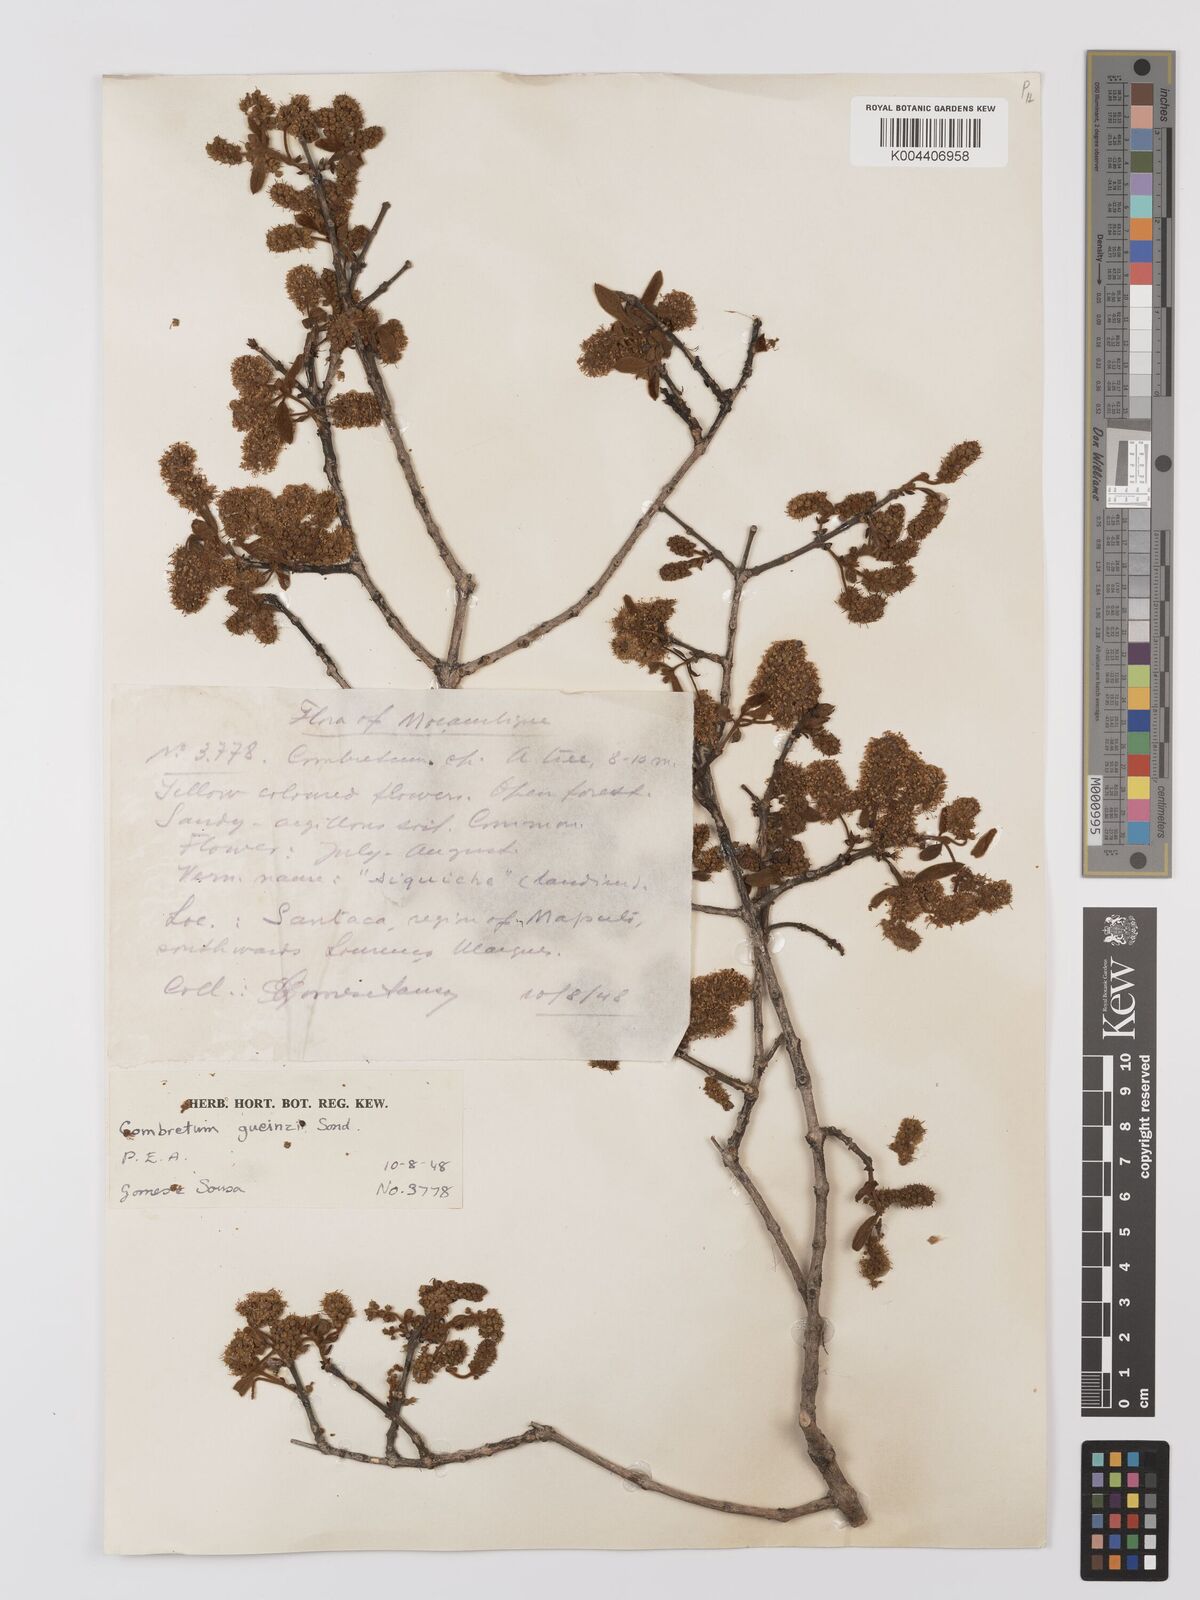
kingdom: Plantae
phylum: Tracheophyta
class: Magnoliopsida
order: Myrtales
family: Combretaceae
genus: Combretum
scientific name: Combretum
